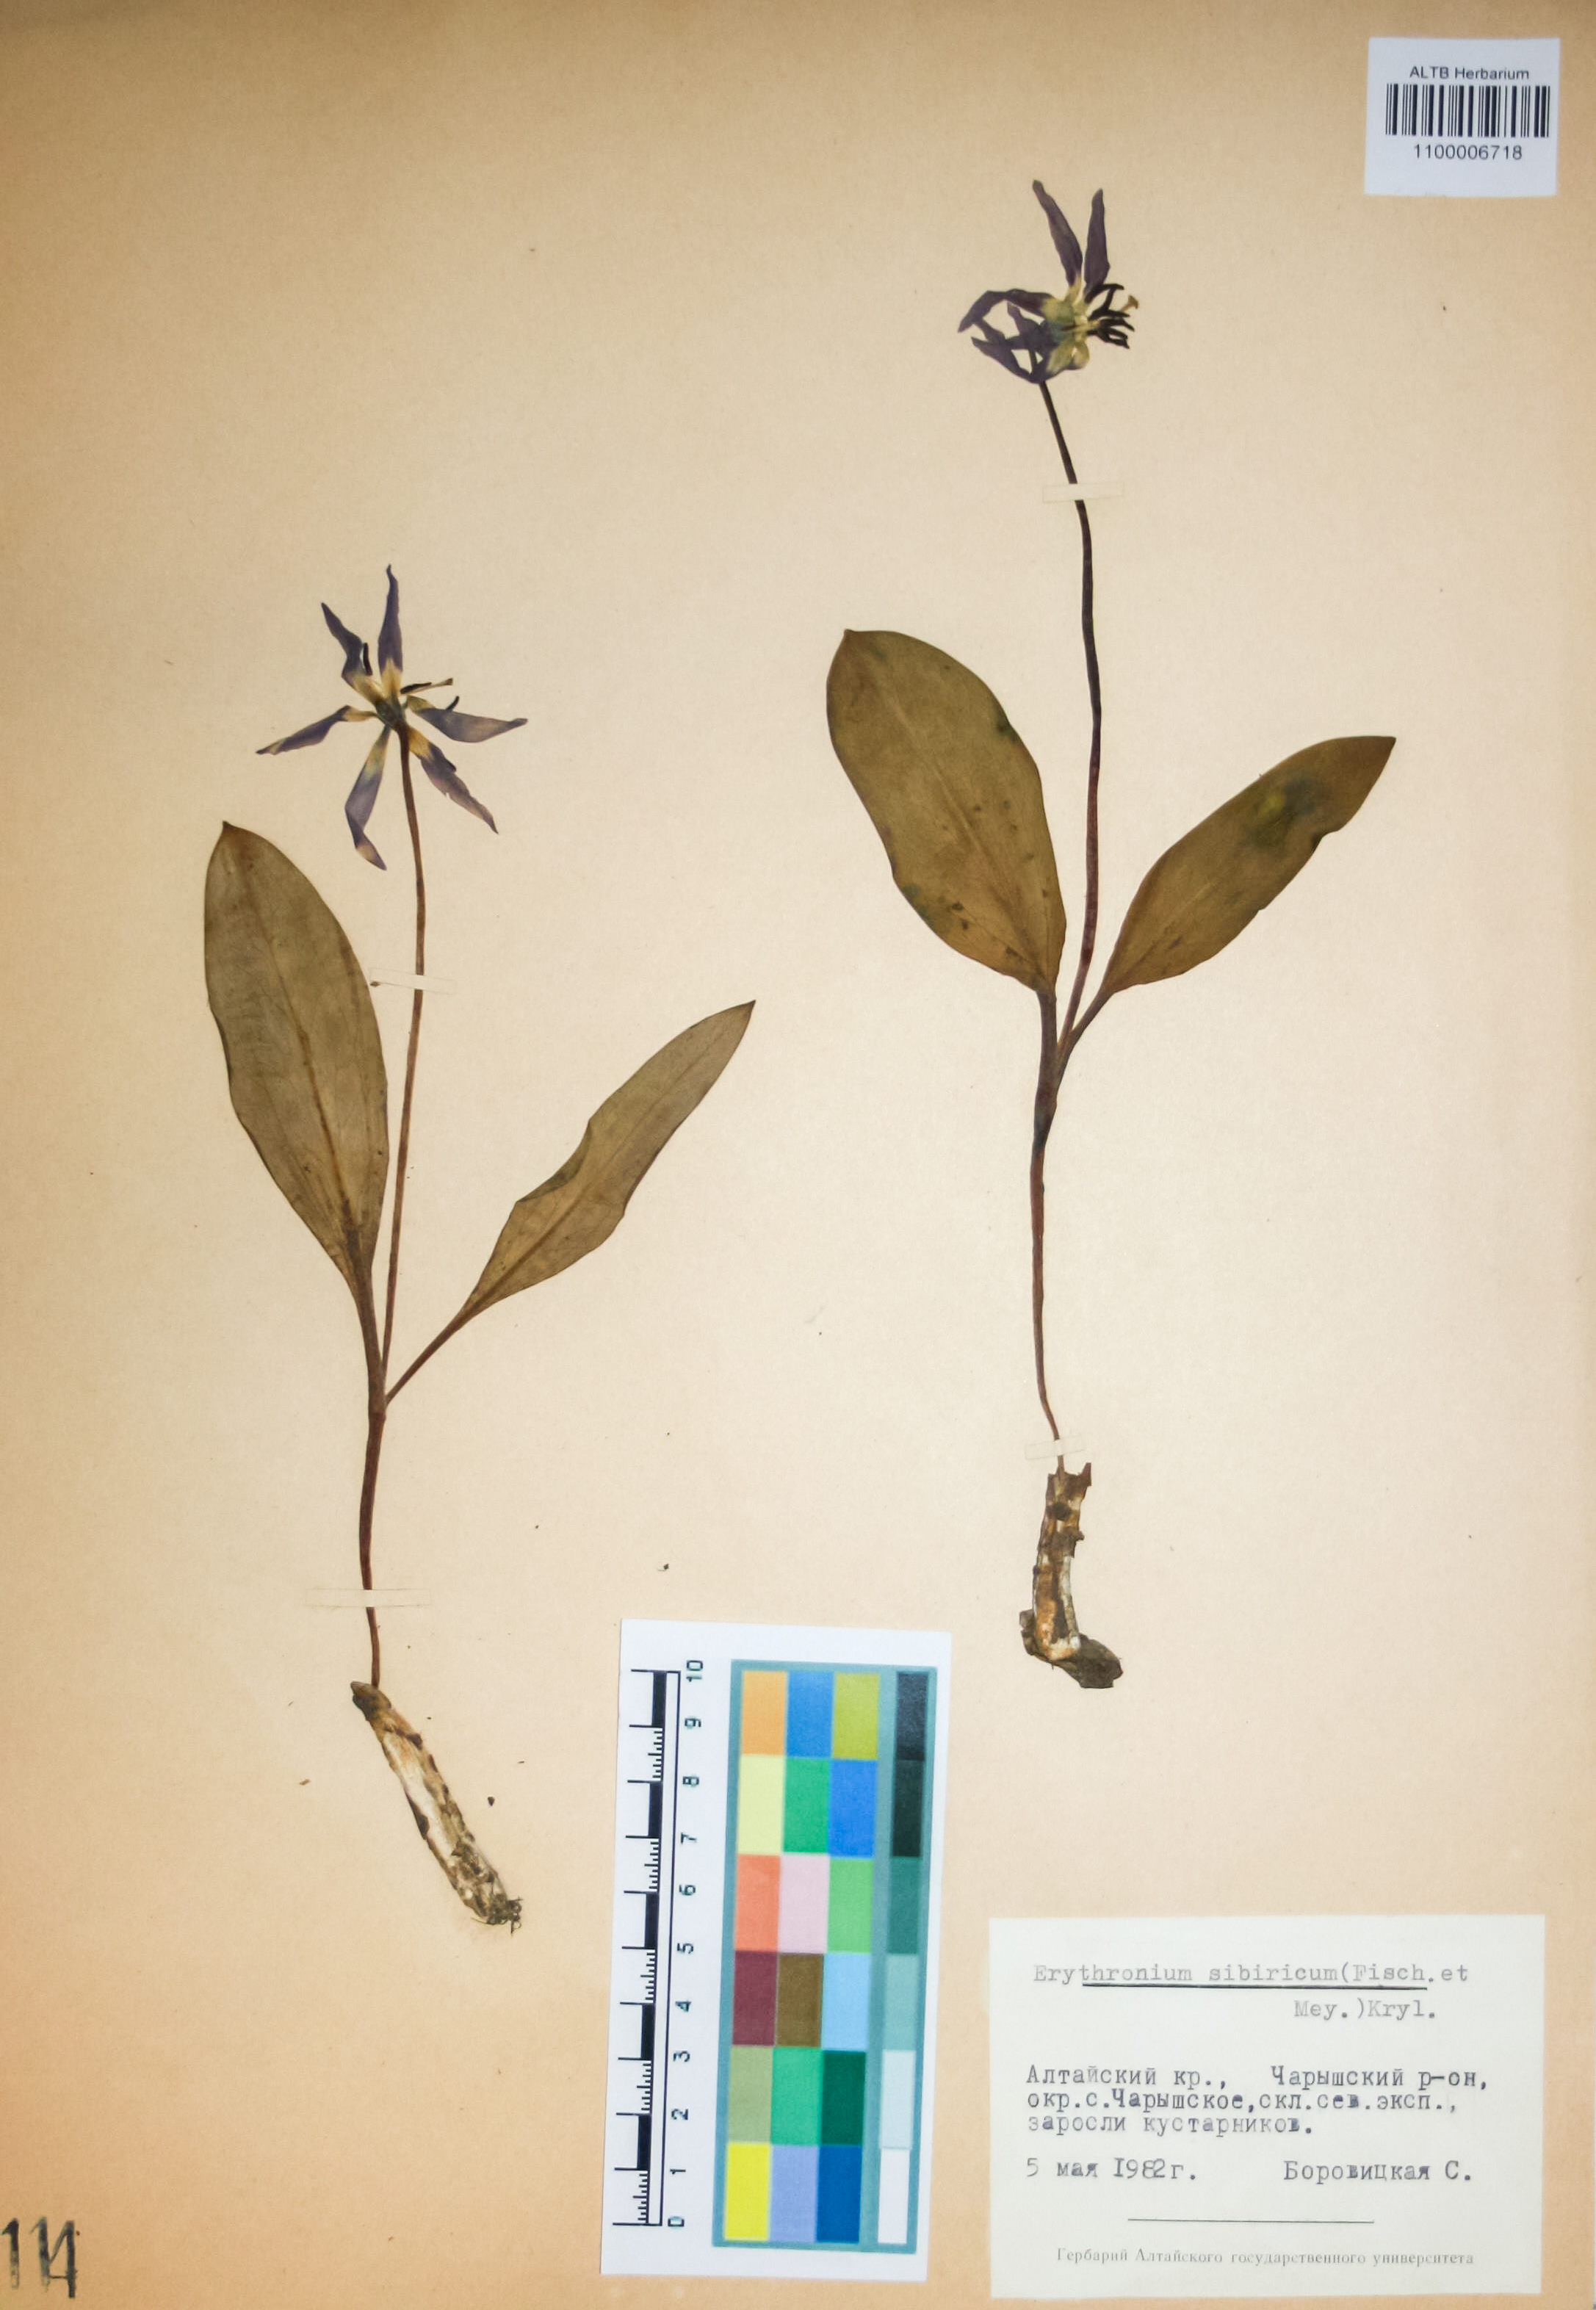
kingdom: Plantae
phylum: Tracheophyta
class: Liliopsida
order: Liliales
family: Liliaceae
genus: Erythronium
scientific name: Erythronium sibiricum
